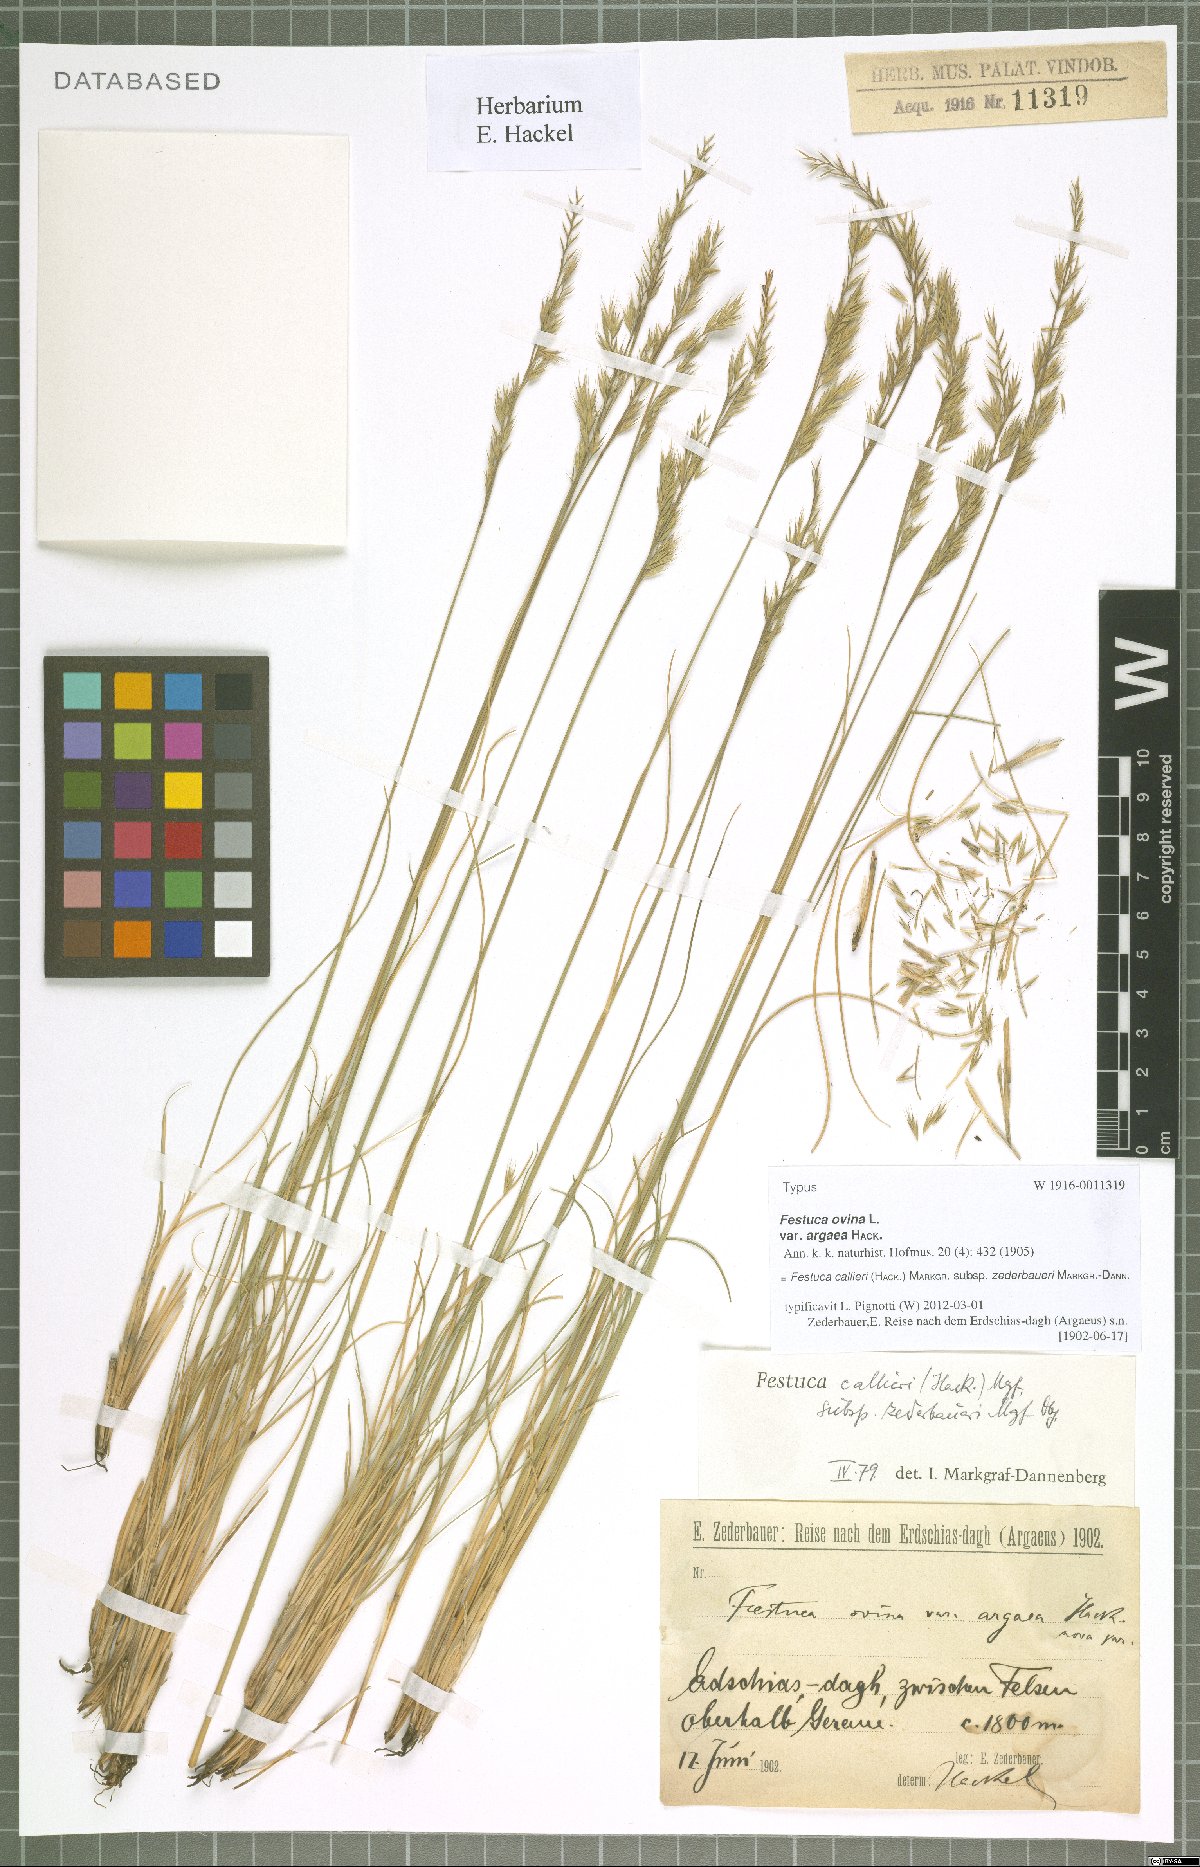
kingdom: Plantae
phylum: Tracheophyta
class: Liliopsida
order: Poales
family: Poaceae
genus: Festuca
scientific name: Festuca callieri
